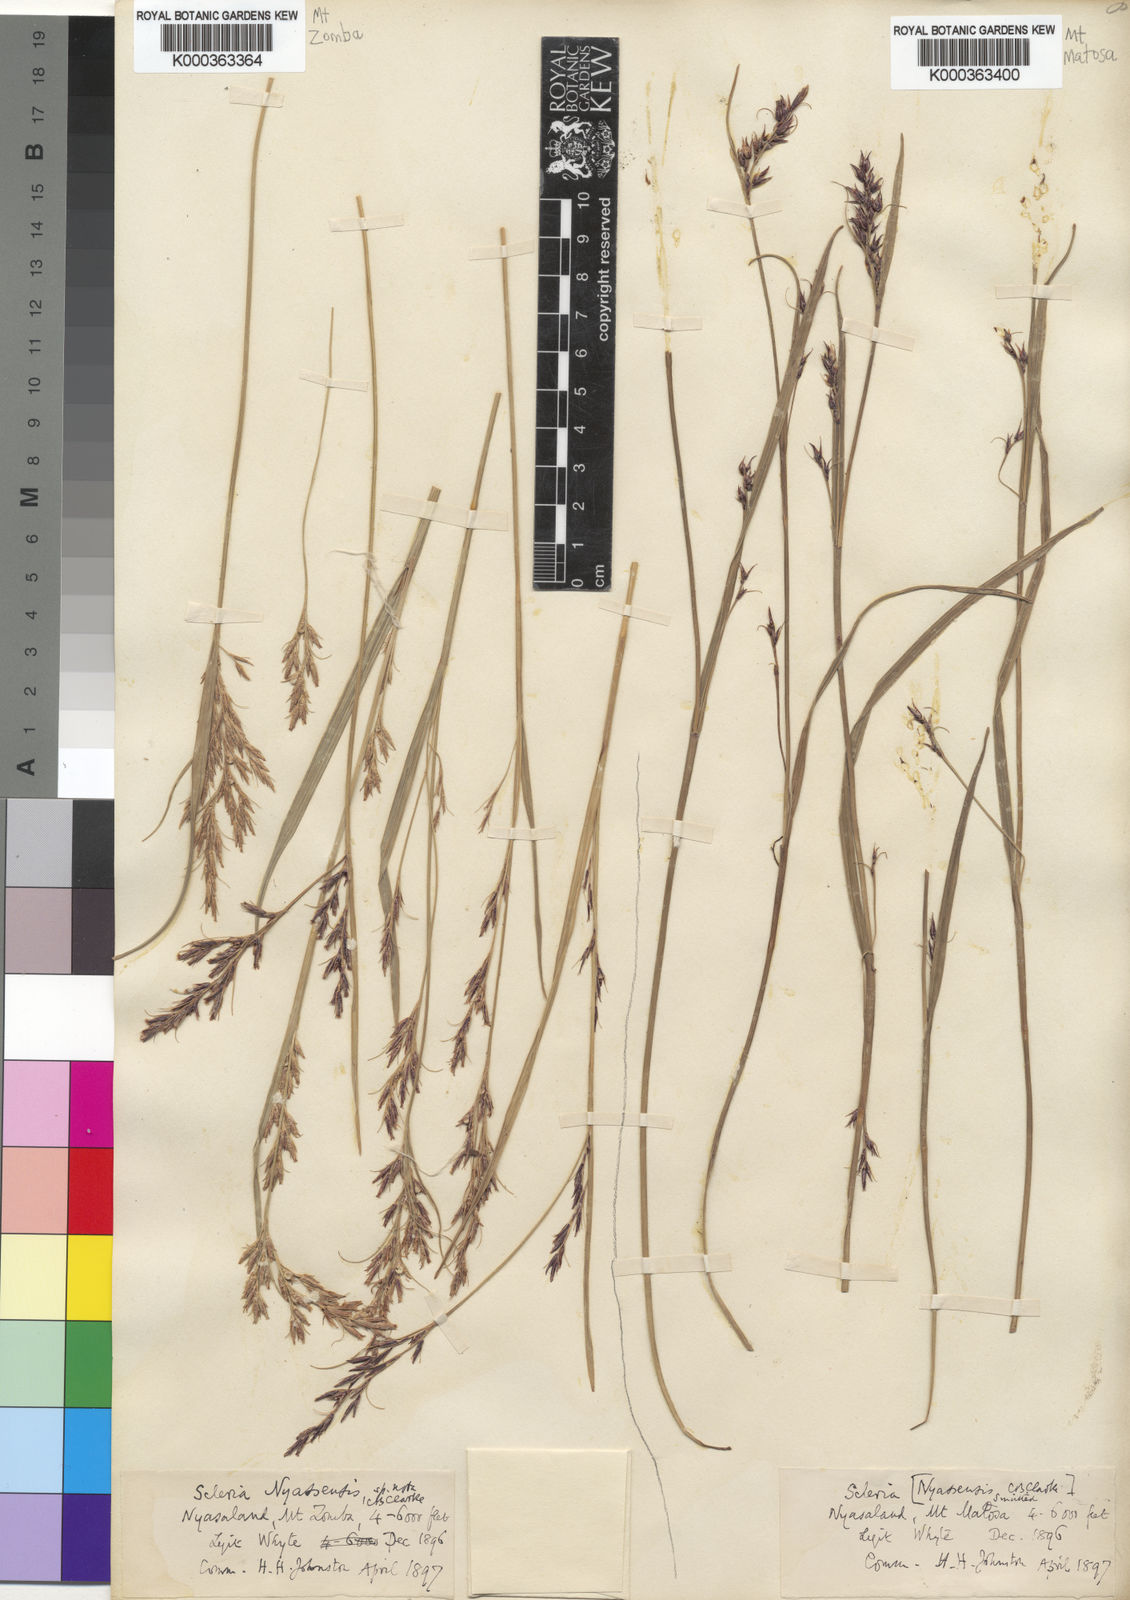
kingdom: Plantae
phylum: Tracheophyta
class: Liliopsida
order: Poales
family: Cyperaceae
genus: Scleria
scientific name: Scleria nyasensis
